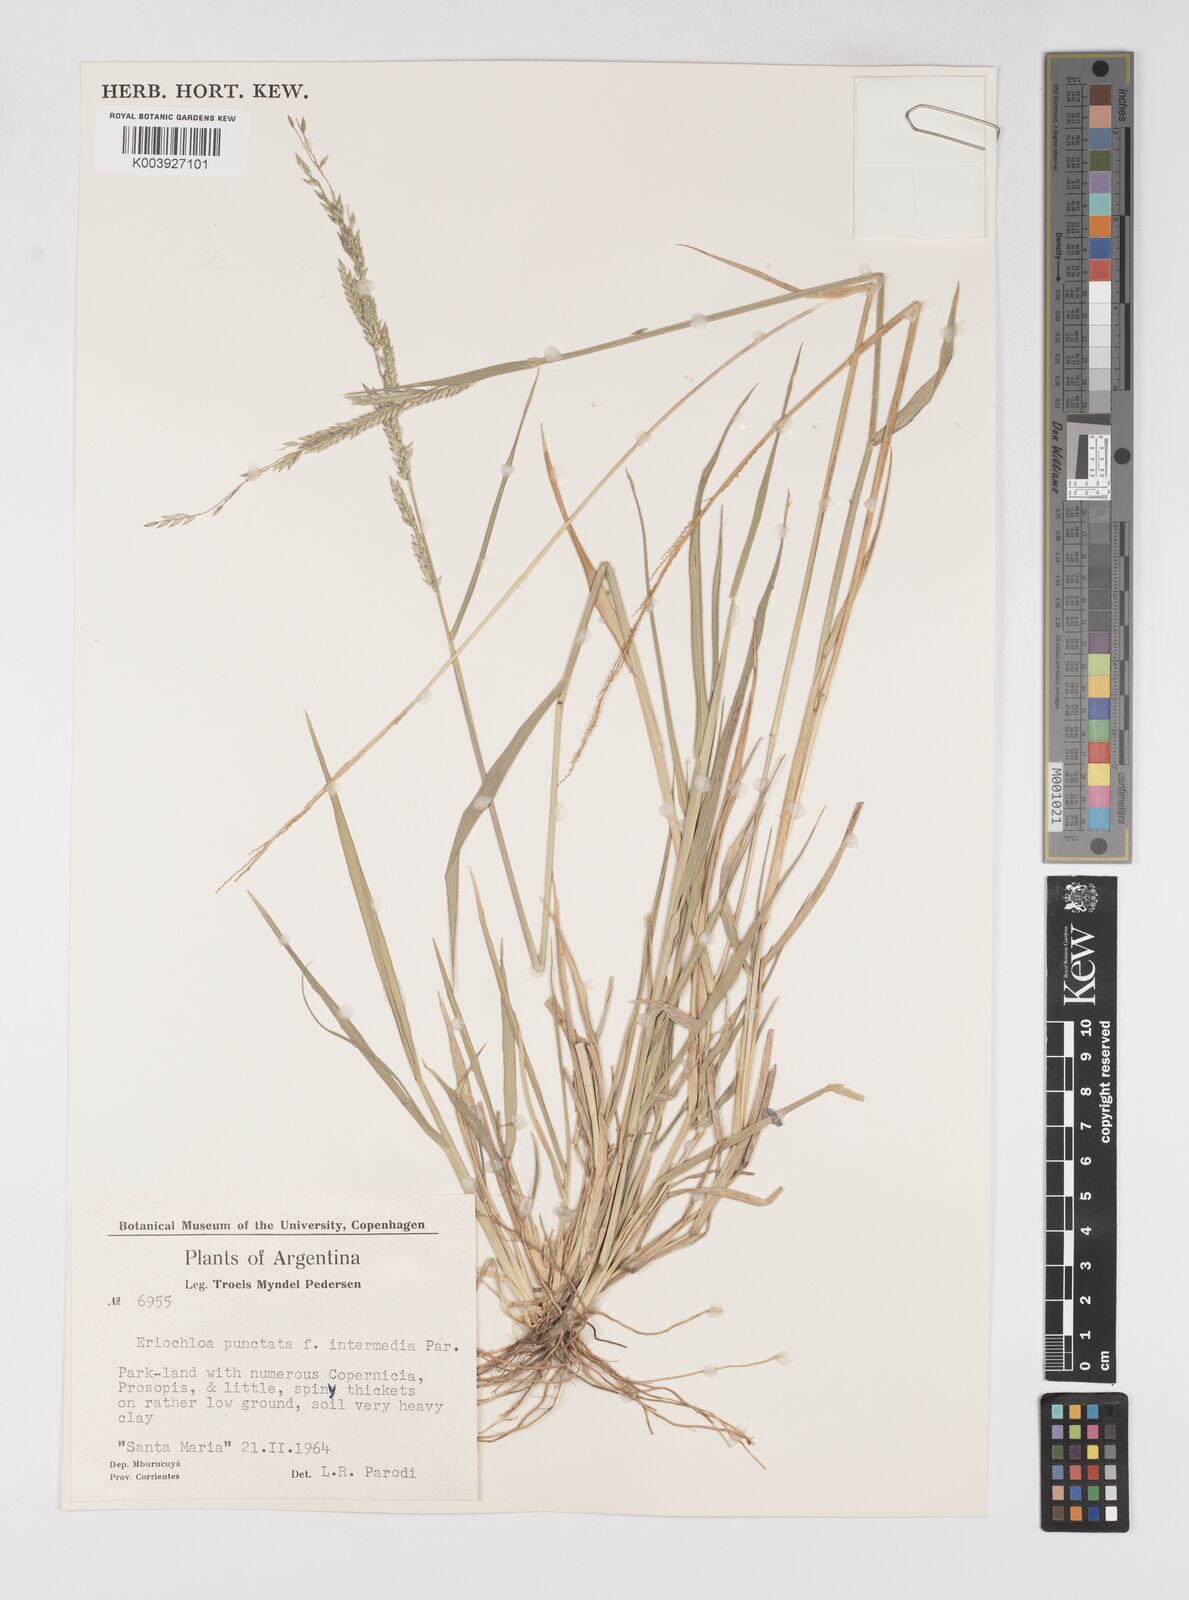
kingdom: Plantae
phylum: Tracheophyta
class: Liliopsida
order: Poales
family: Poaceae
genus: Eriochloa
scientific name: Eriochloa punctata
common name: Louisiana cupgrass
